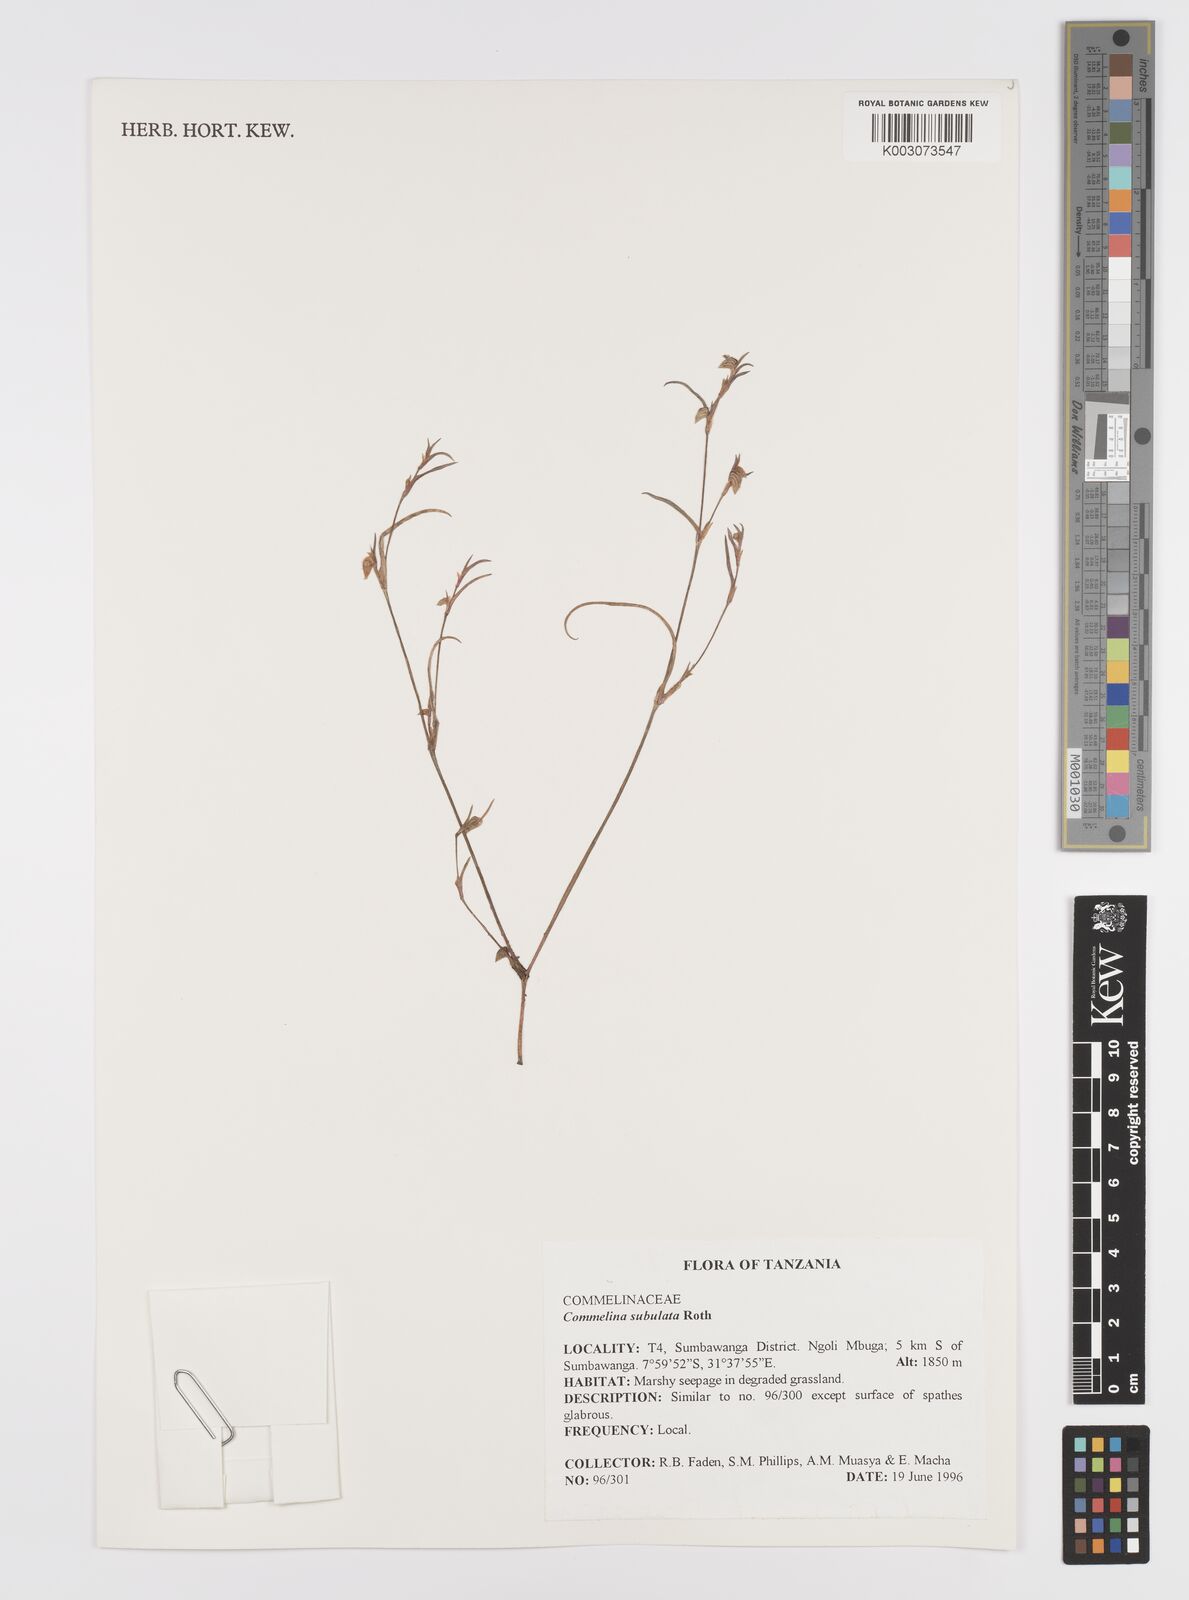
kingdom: Plantae
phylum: Tracheophyta
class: Liliopsida
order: Commelinales
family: Commelinaceae
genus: Commelina
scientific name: Commelina subulata
